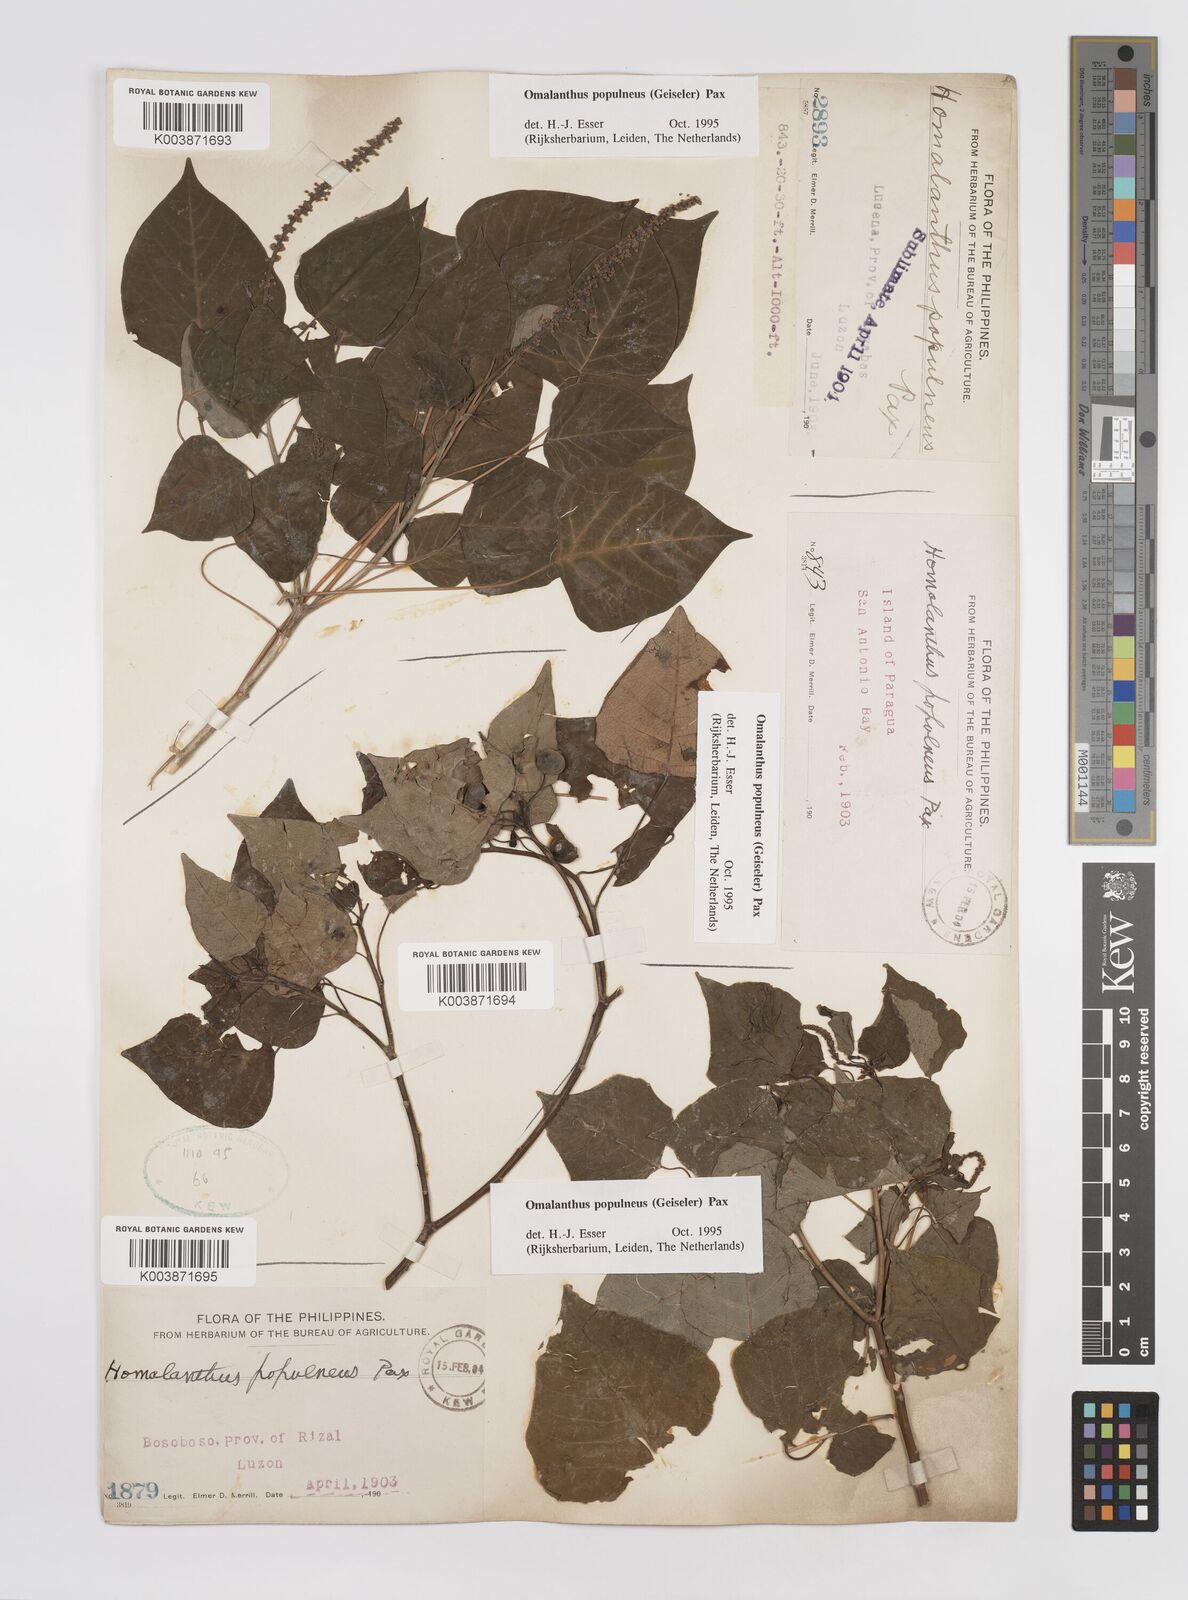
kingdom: Plantae
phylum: Tracheophyta
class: Magnoliopsida
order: Malpighiales
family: Euphorbiaceae
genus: Homalanthus
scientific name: Homalanthus populneus
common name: Spurge
